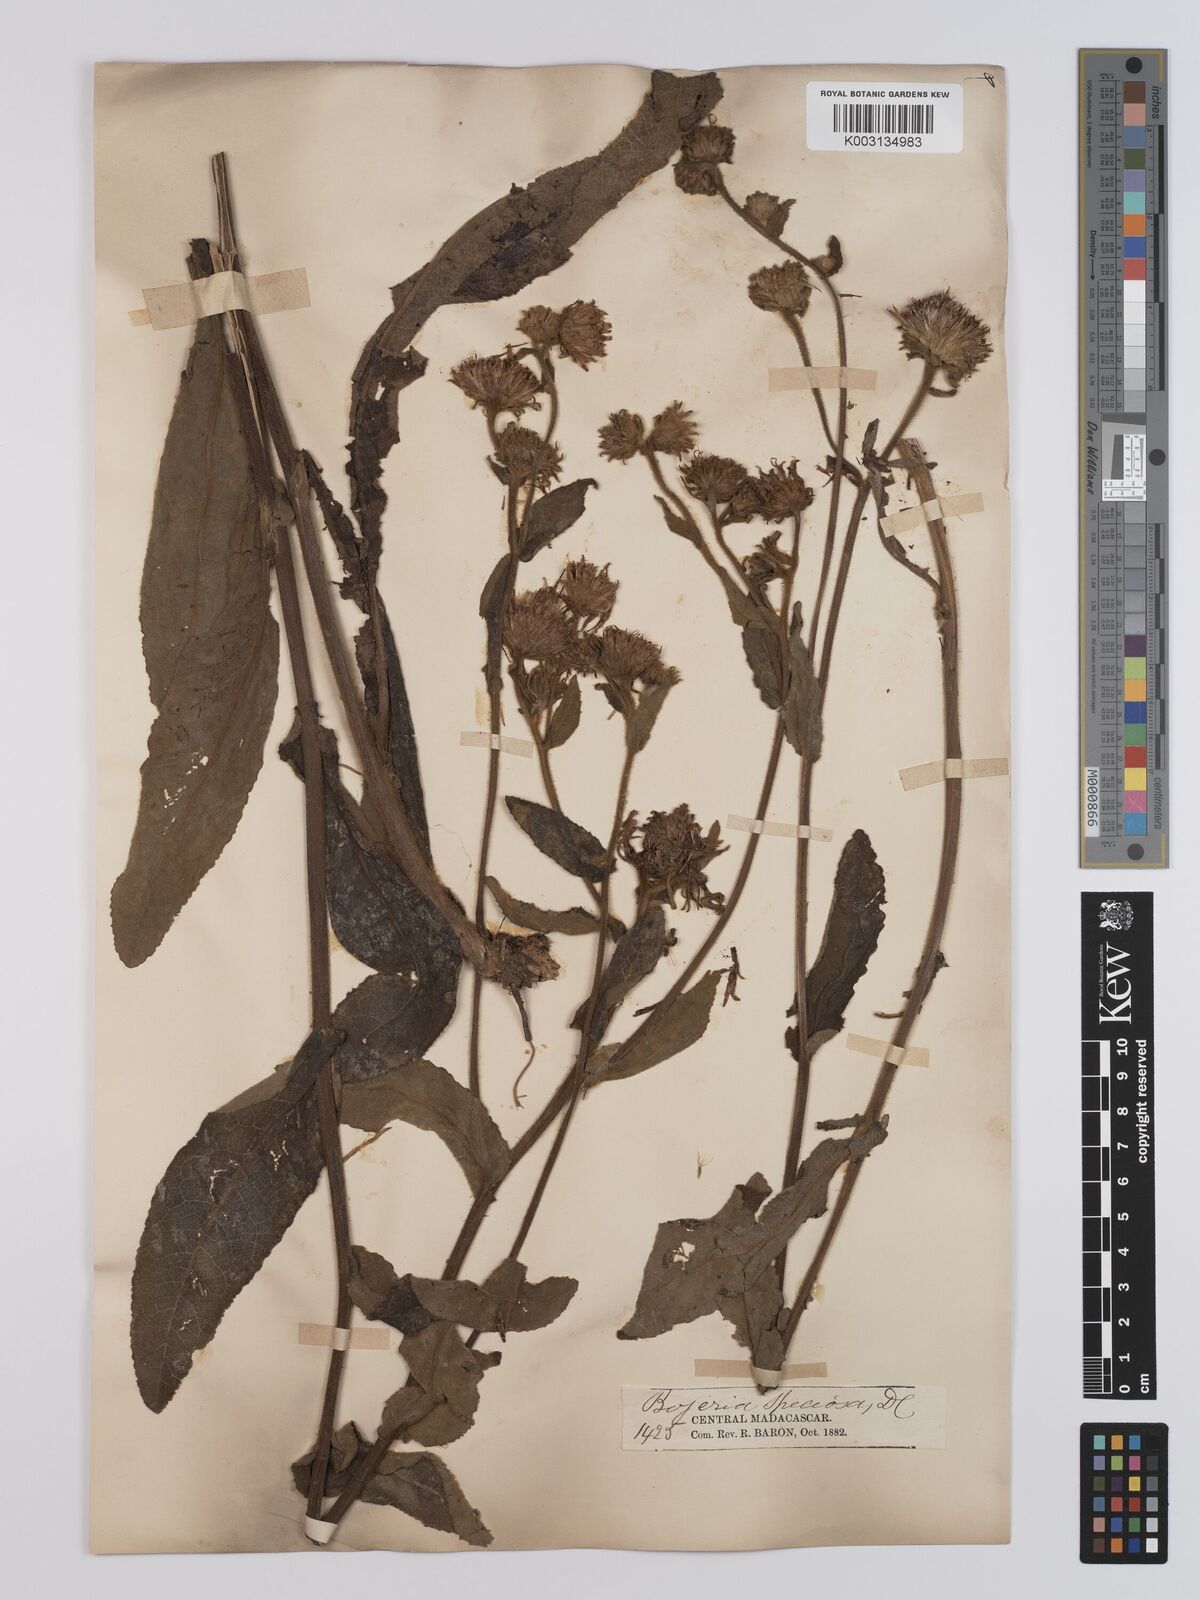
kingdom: Plantae
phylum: Tracheophyta
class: Magnoliopsida
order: Asterales
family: Asteraceae
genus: Inula
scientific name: Inula speciosa
